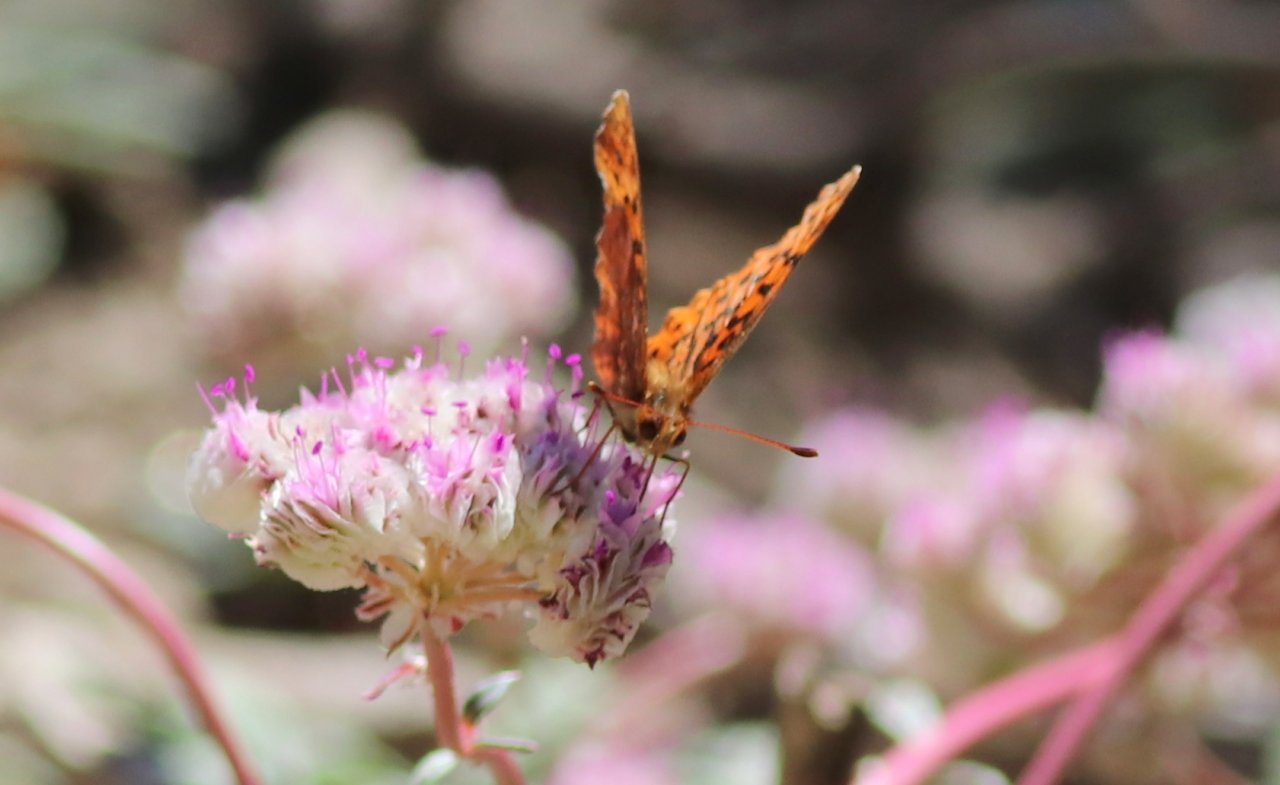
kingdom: Animalia
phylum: Arthropoda
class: Insecta
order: Lepidoptera
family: Nymphalidae
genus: Boloria
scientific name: Boloria epithore
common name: Pacific Fritillary
